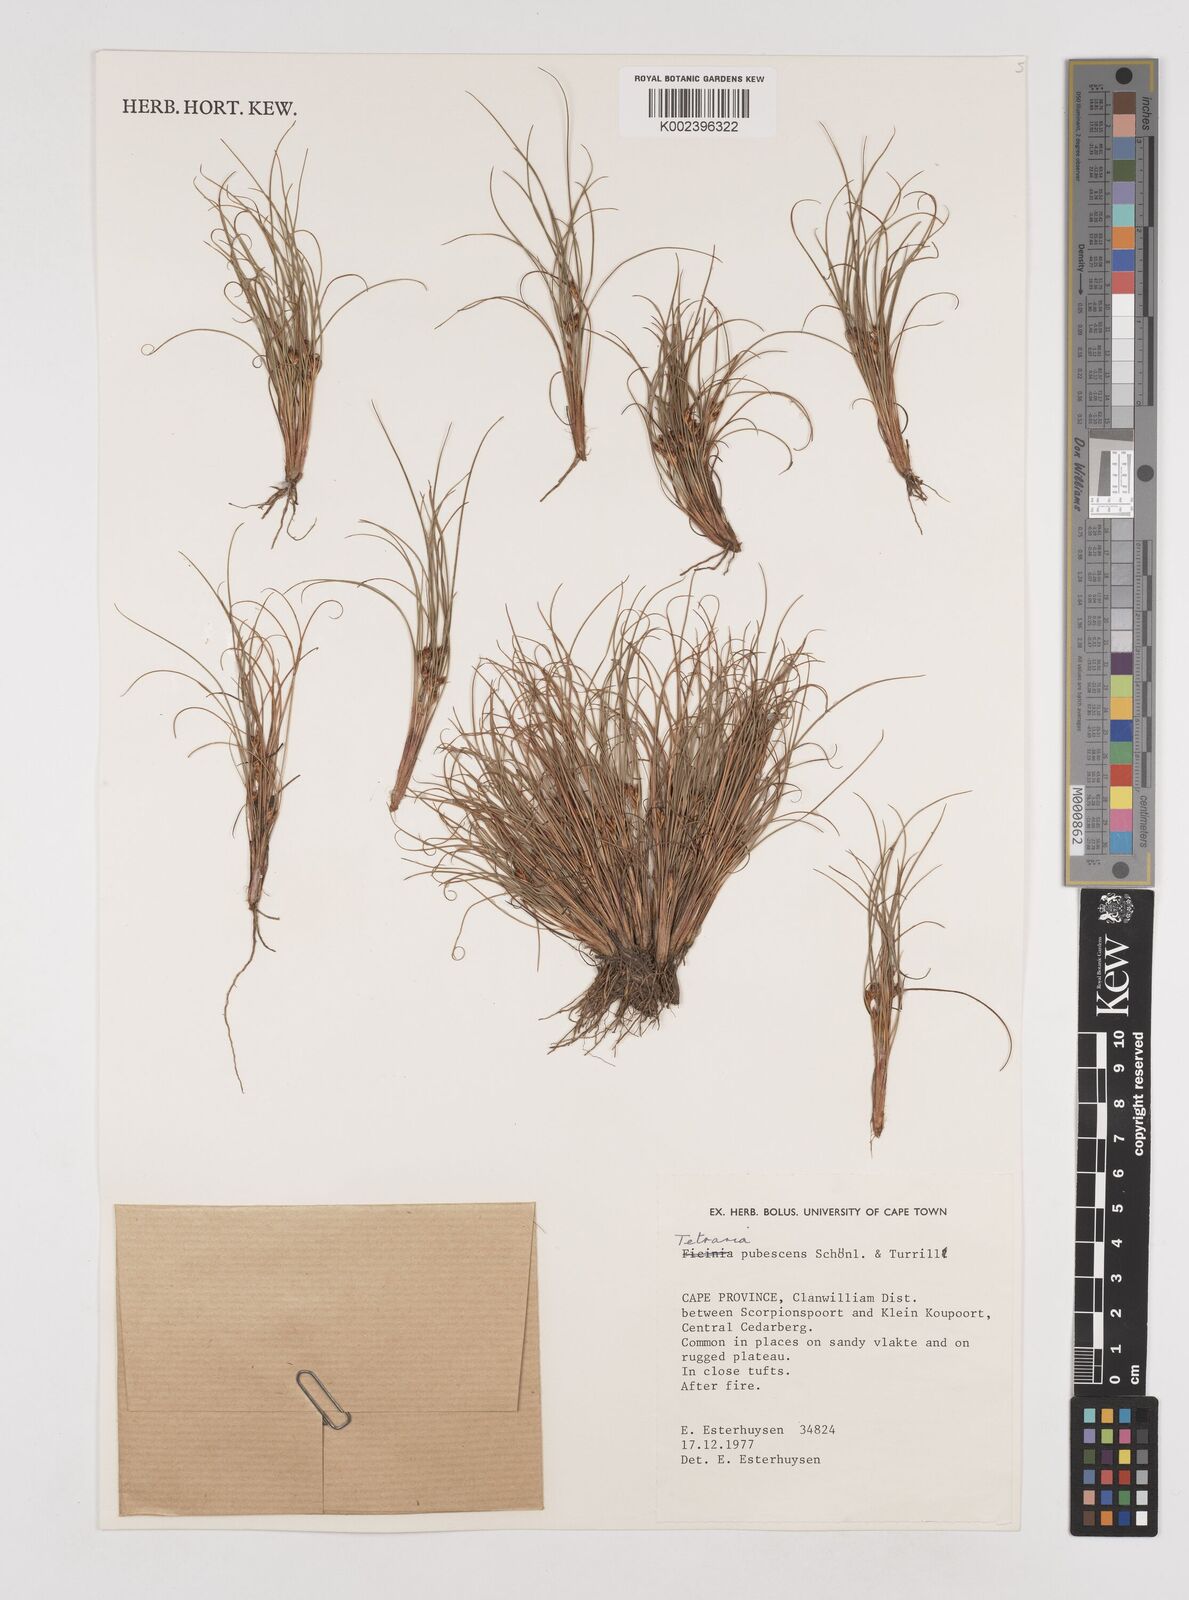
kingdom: Plantae
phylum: Tracheophyta
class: Liliopsida
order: Poales
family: Cyperaceae
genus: Tetraria
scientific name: Tetraria pubescens
